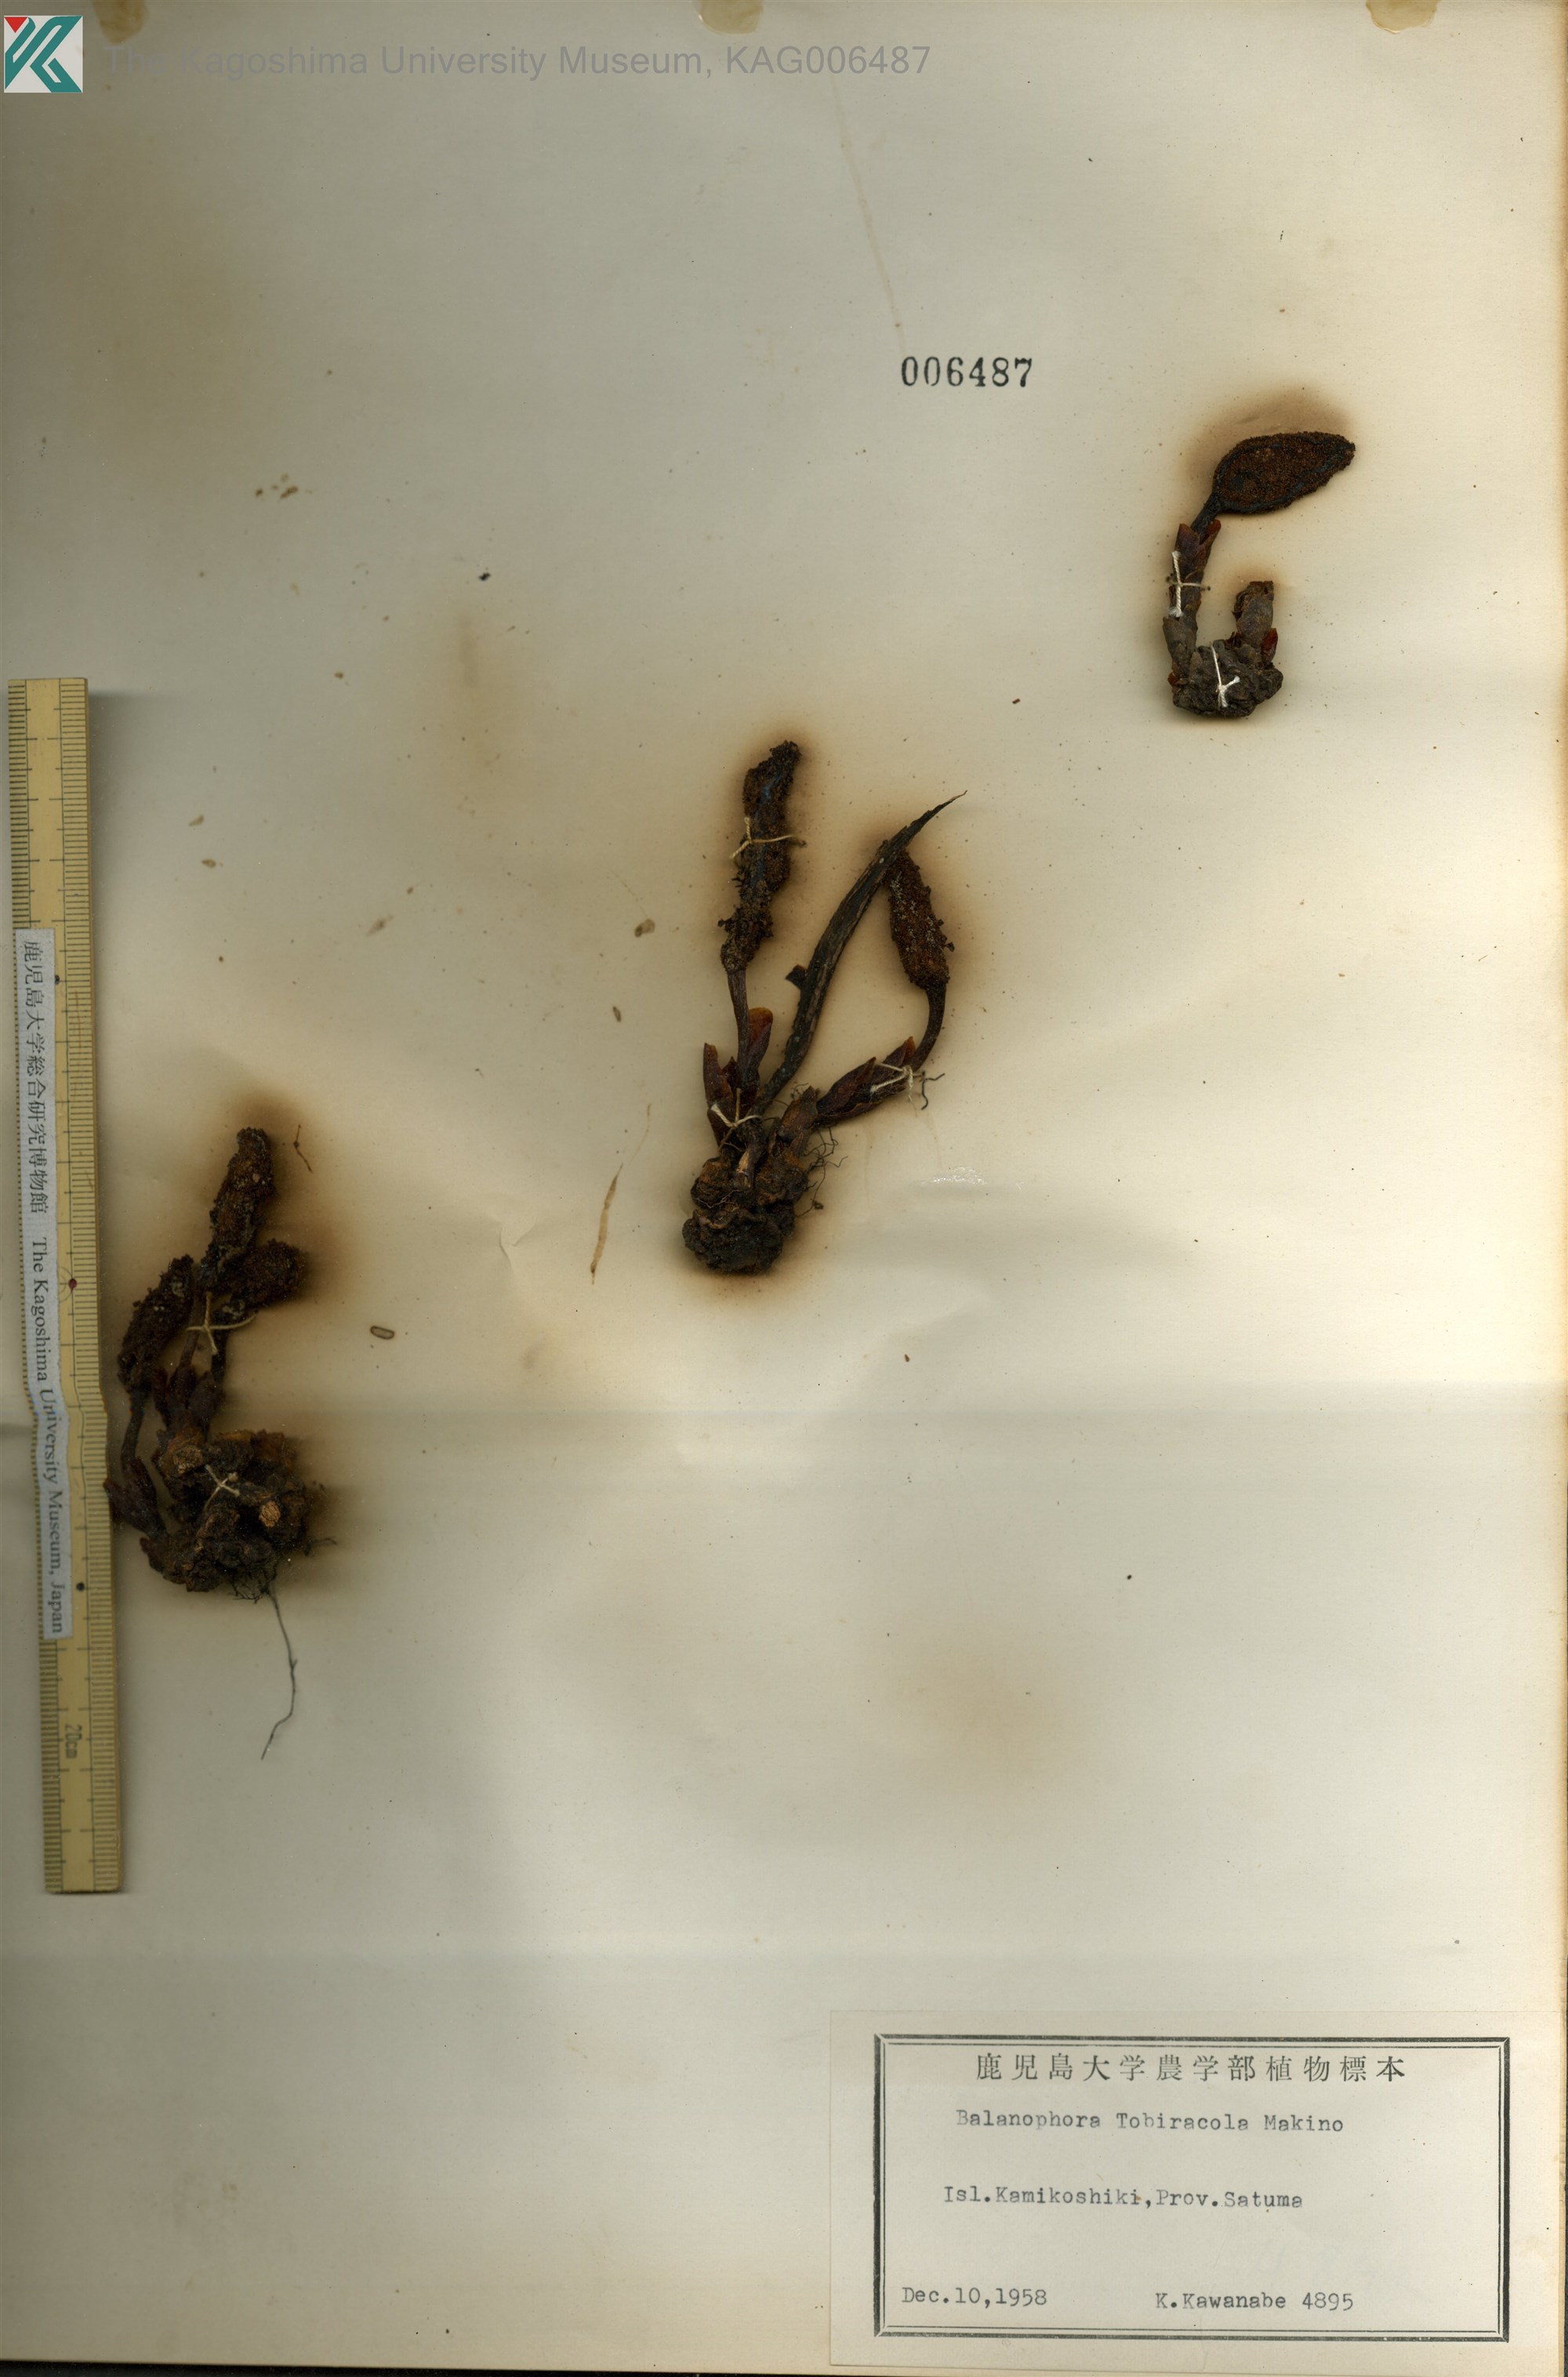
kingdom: Plantae
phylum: Tracheophyta
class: Magnoliopsida
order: Santalales
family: Balanophoraceae
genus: Balanophora
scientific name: Balanophora tobiracola
